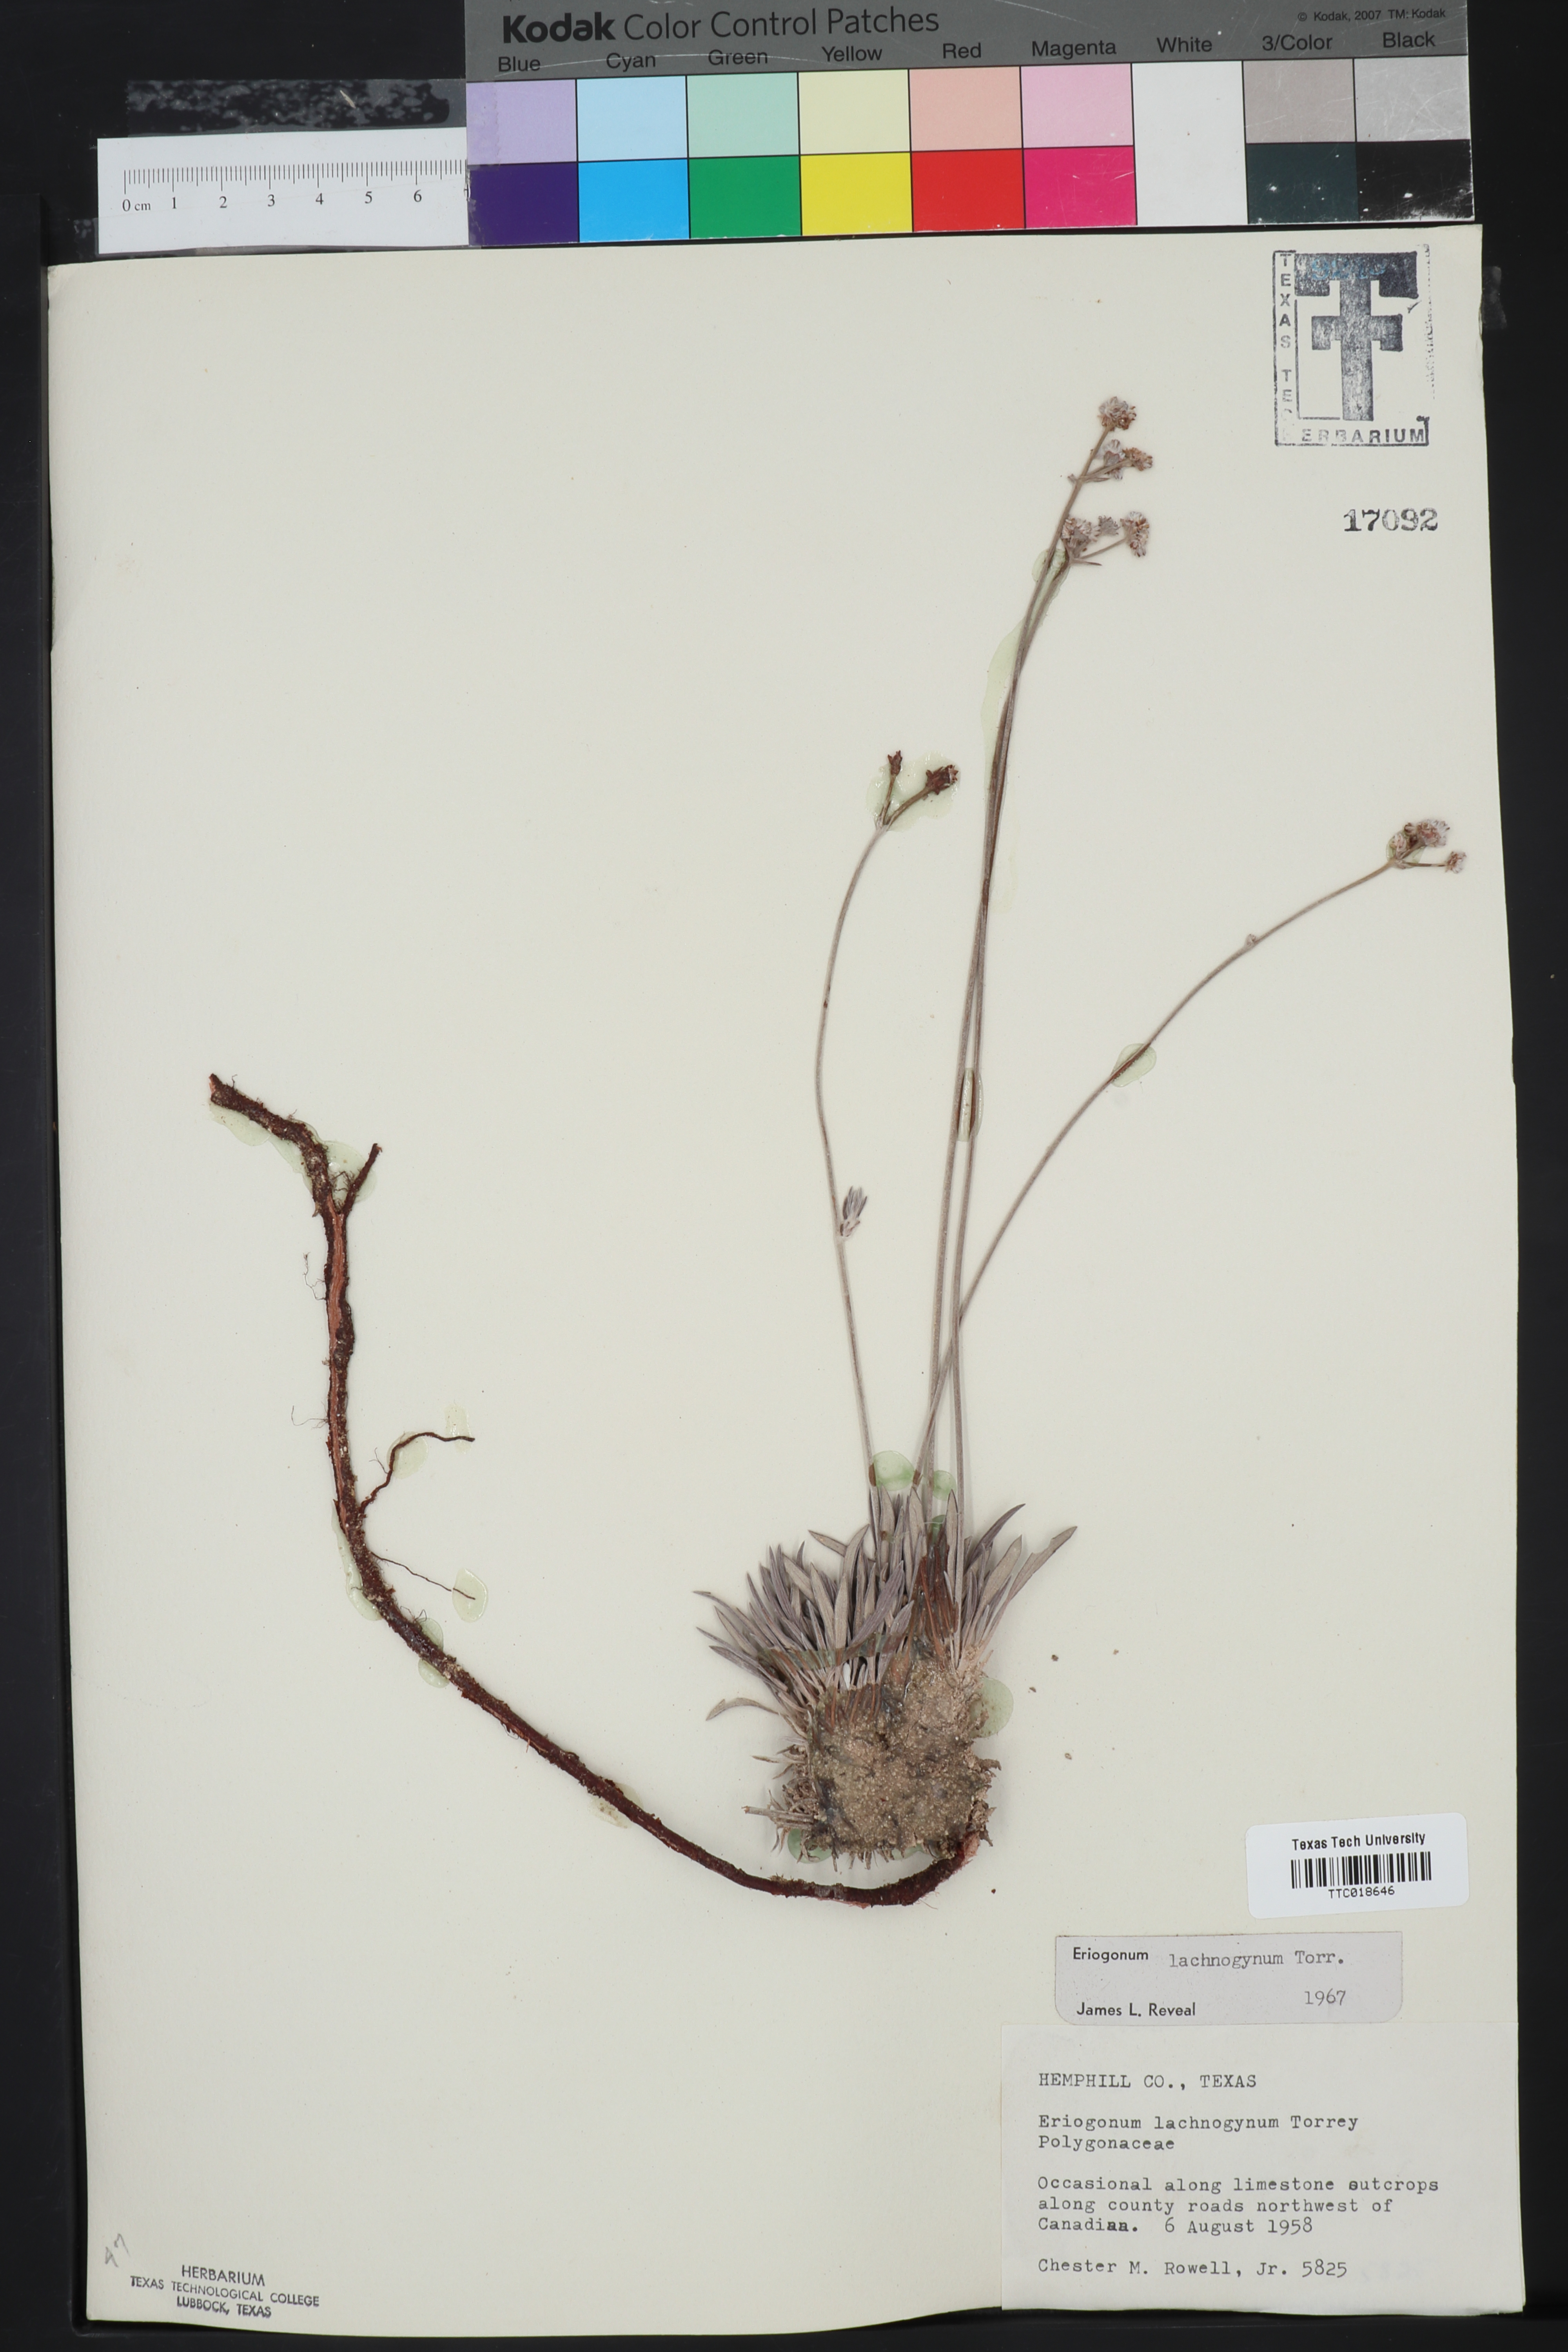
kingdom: Plantae
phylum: Tracheophyta
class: Magnoliopsida
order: Caryophyllales
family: Polygonaceae
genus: Eriogonum
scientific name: Eriogonum lachnogynum
